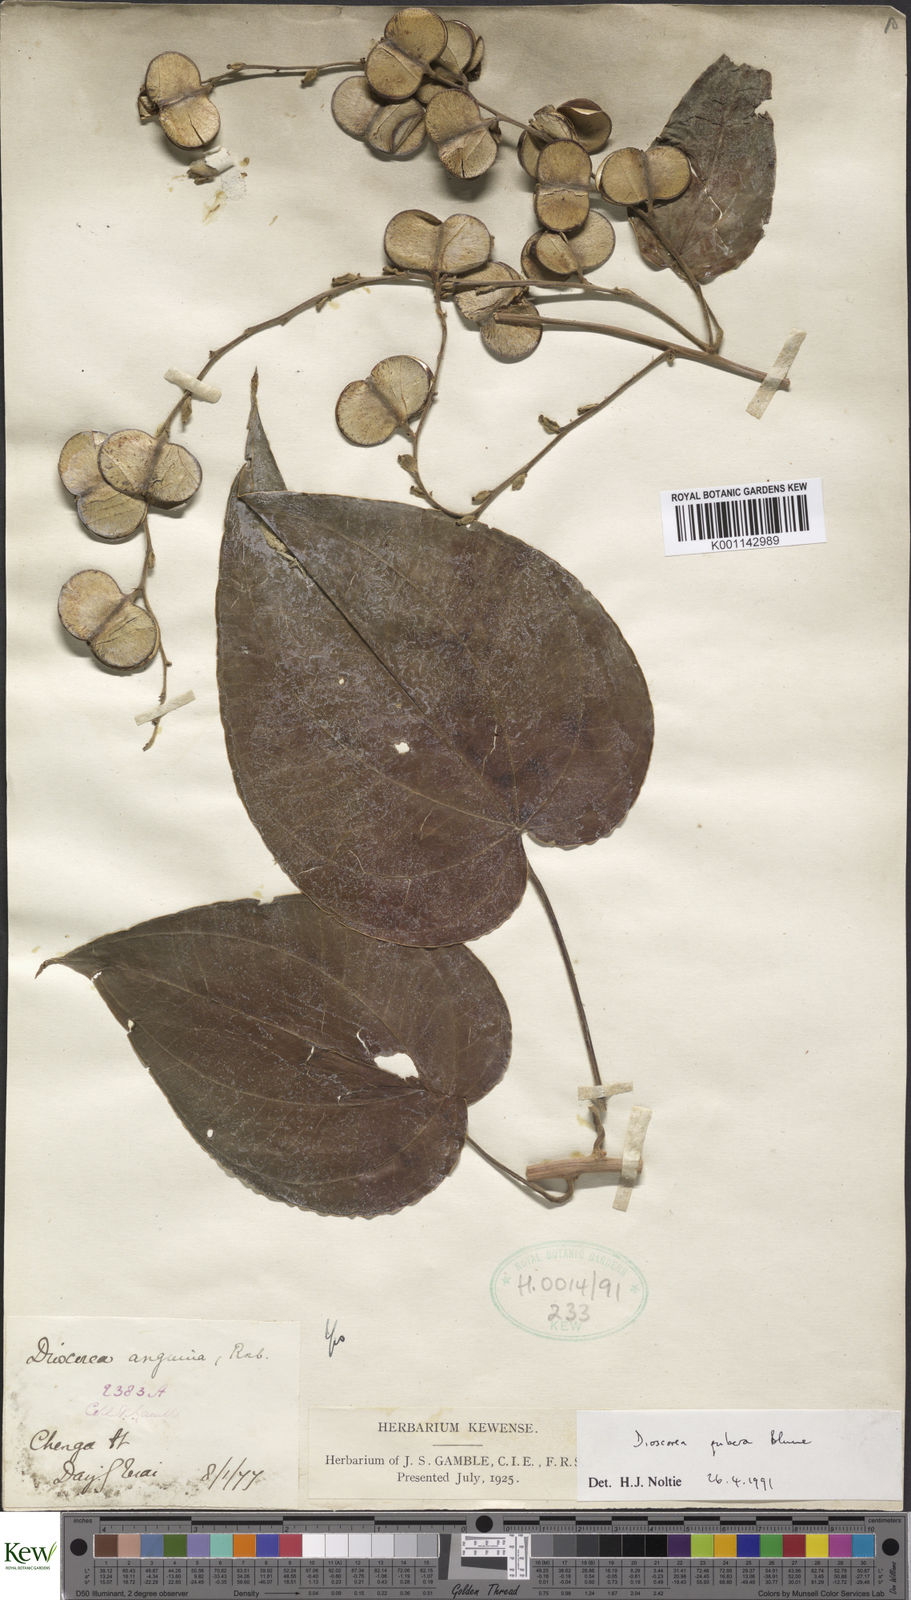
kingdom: Plantae
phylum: Tracheophyta
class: Liliopsida
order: Dioscoreales
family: Dioscoreaceae
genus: Dioscorea
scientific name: Dioscorea pubera
